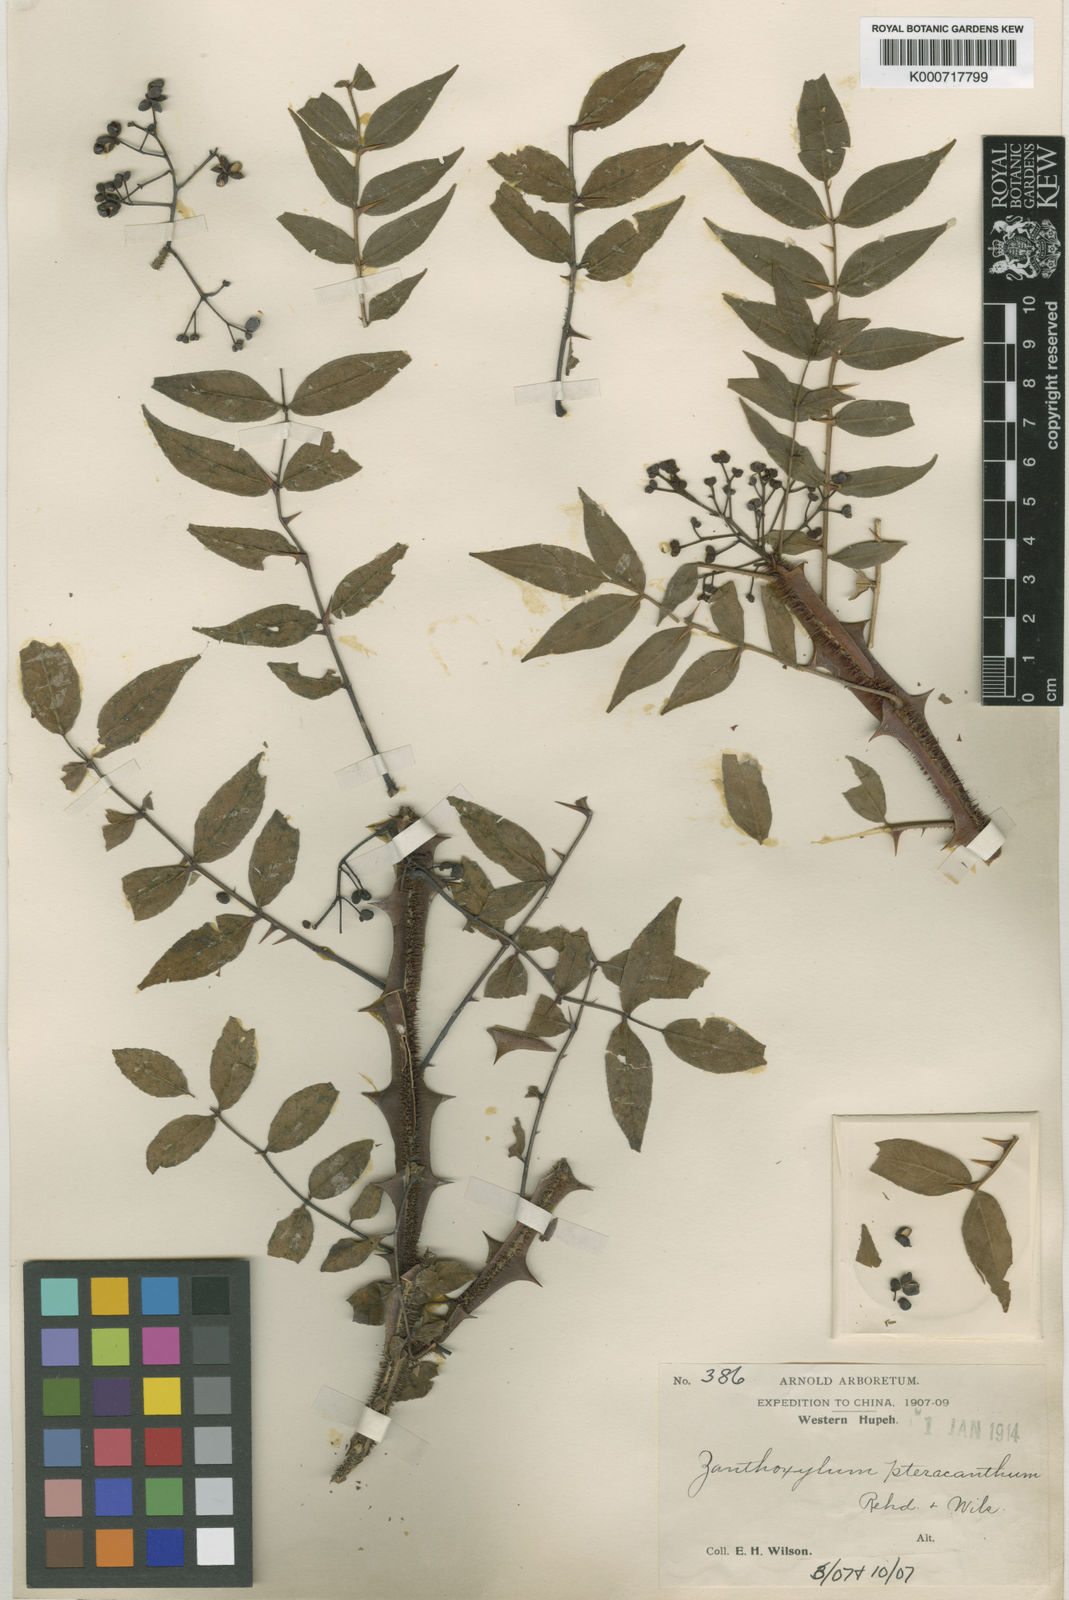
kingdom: Plantae
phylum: Tracheophyta
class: Magnoliopsida
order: Sapindales
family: Rutaceae
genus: Zanthoxylum
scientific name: Zanthoxylum pteracanthum
